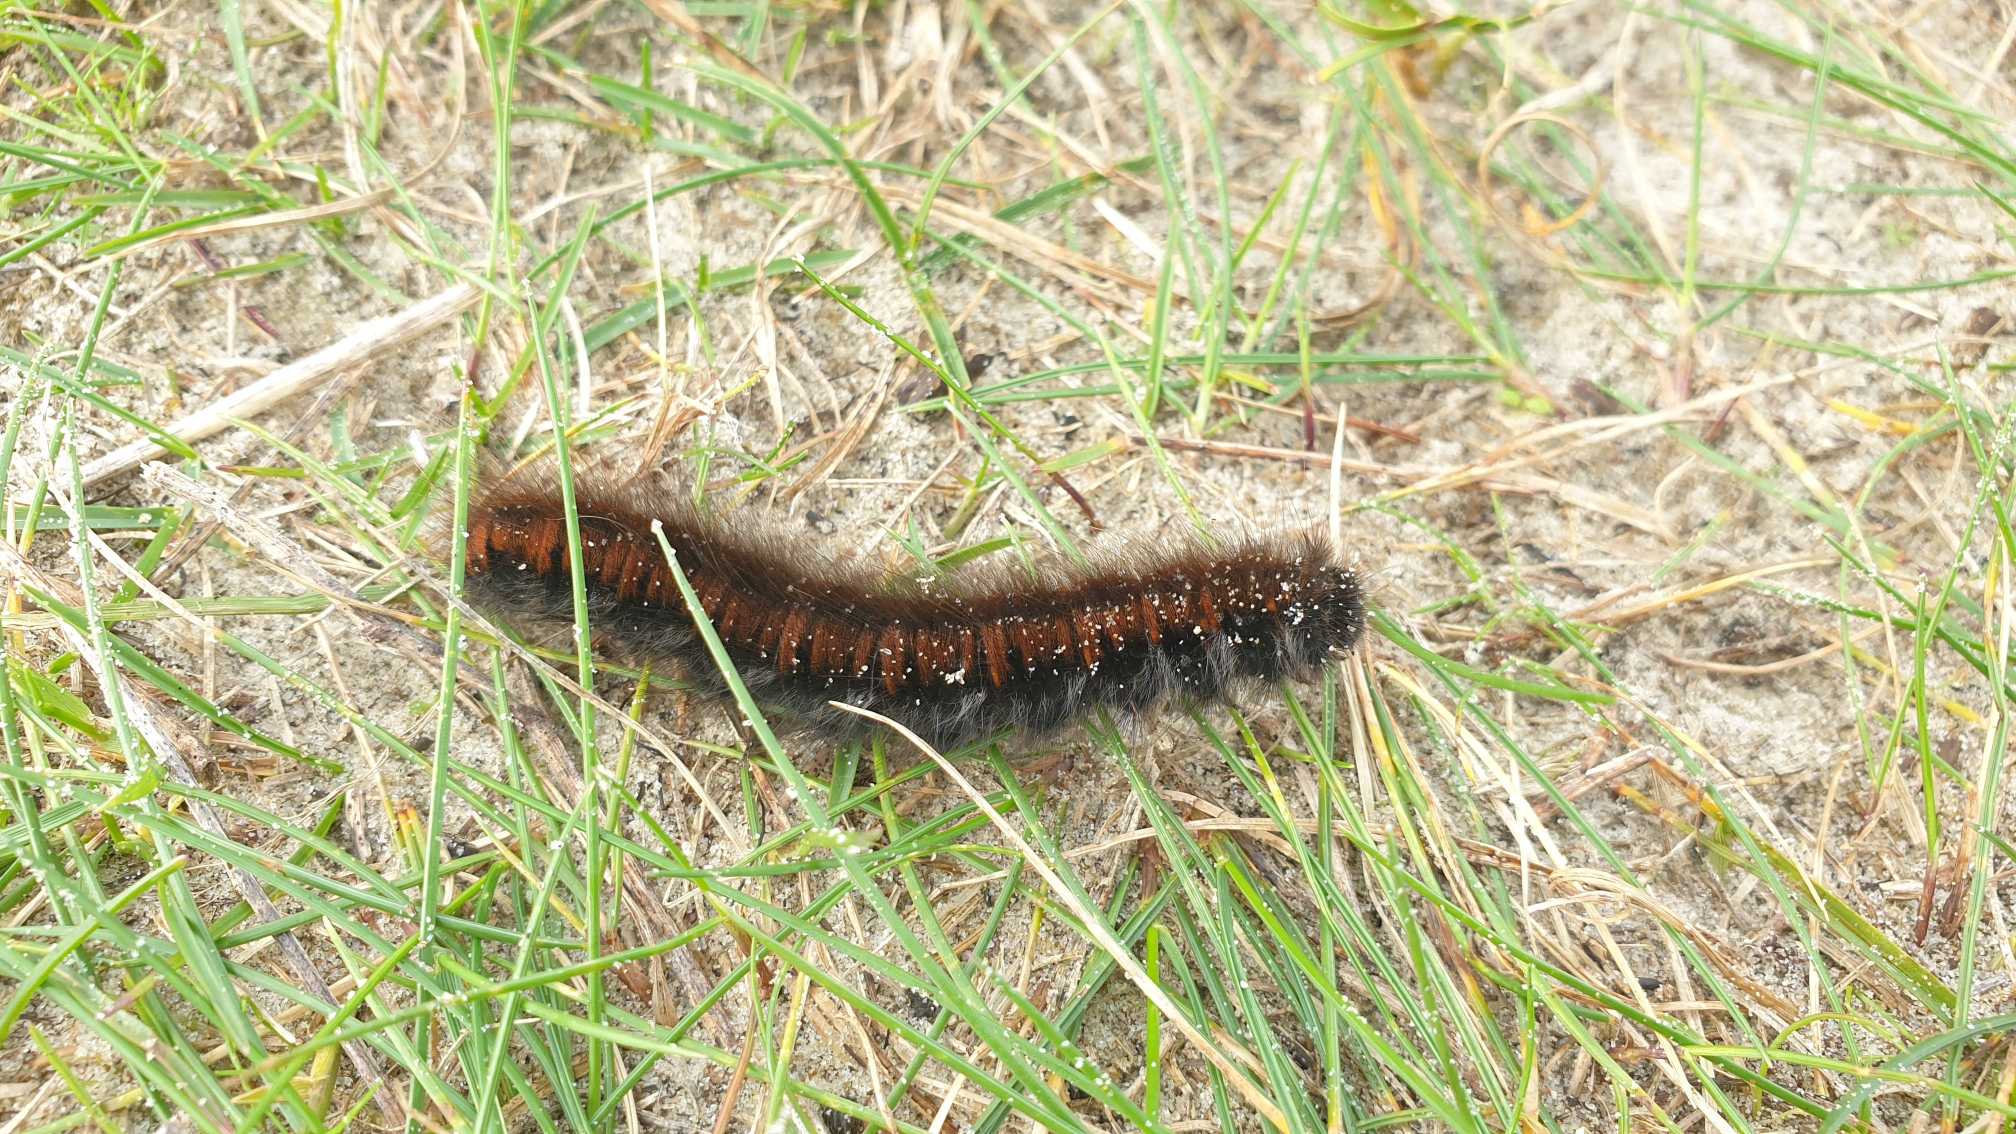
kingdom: Animalia
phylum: Arthropoda
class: Insecta
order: Lepidoptera
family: Lasiocampidae
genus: Macrothylacia
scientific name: Macrothylacia rubi
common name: Brombærspinder
